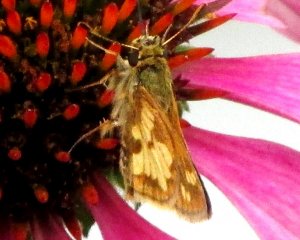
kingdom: Animalia
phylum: Arthropoda
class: Insecta
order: Lepidoptera
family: Hesperiidae
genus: Polites
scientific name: Polites coras
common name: Peck's Skipper
